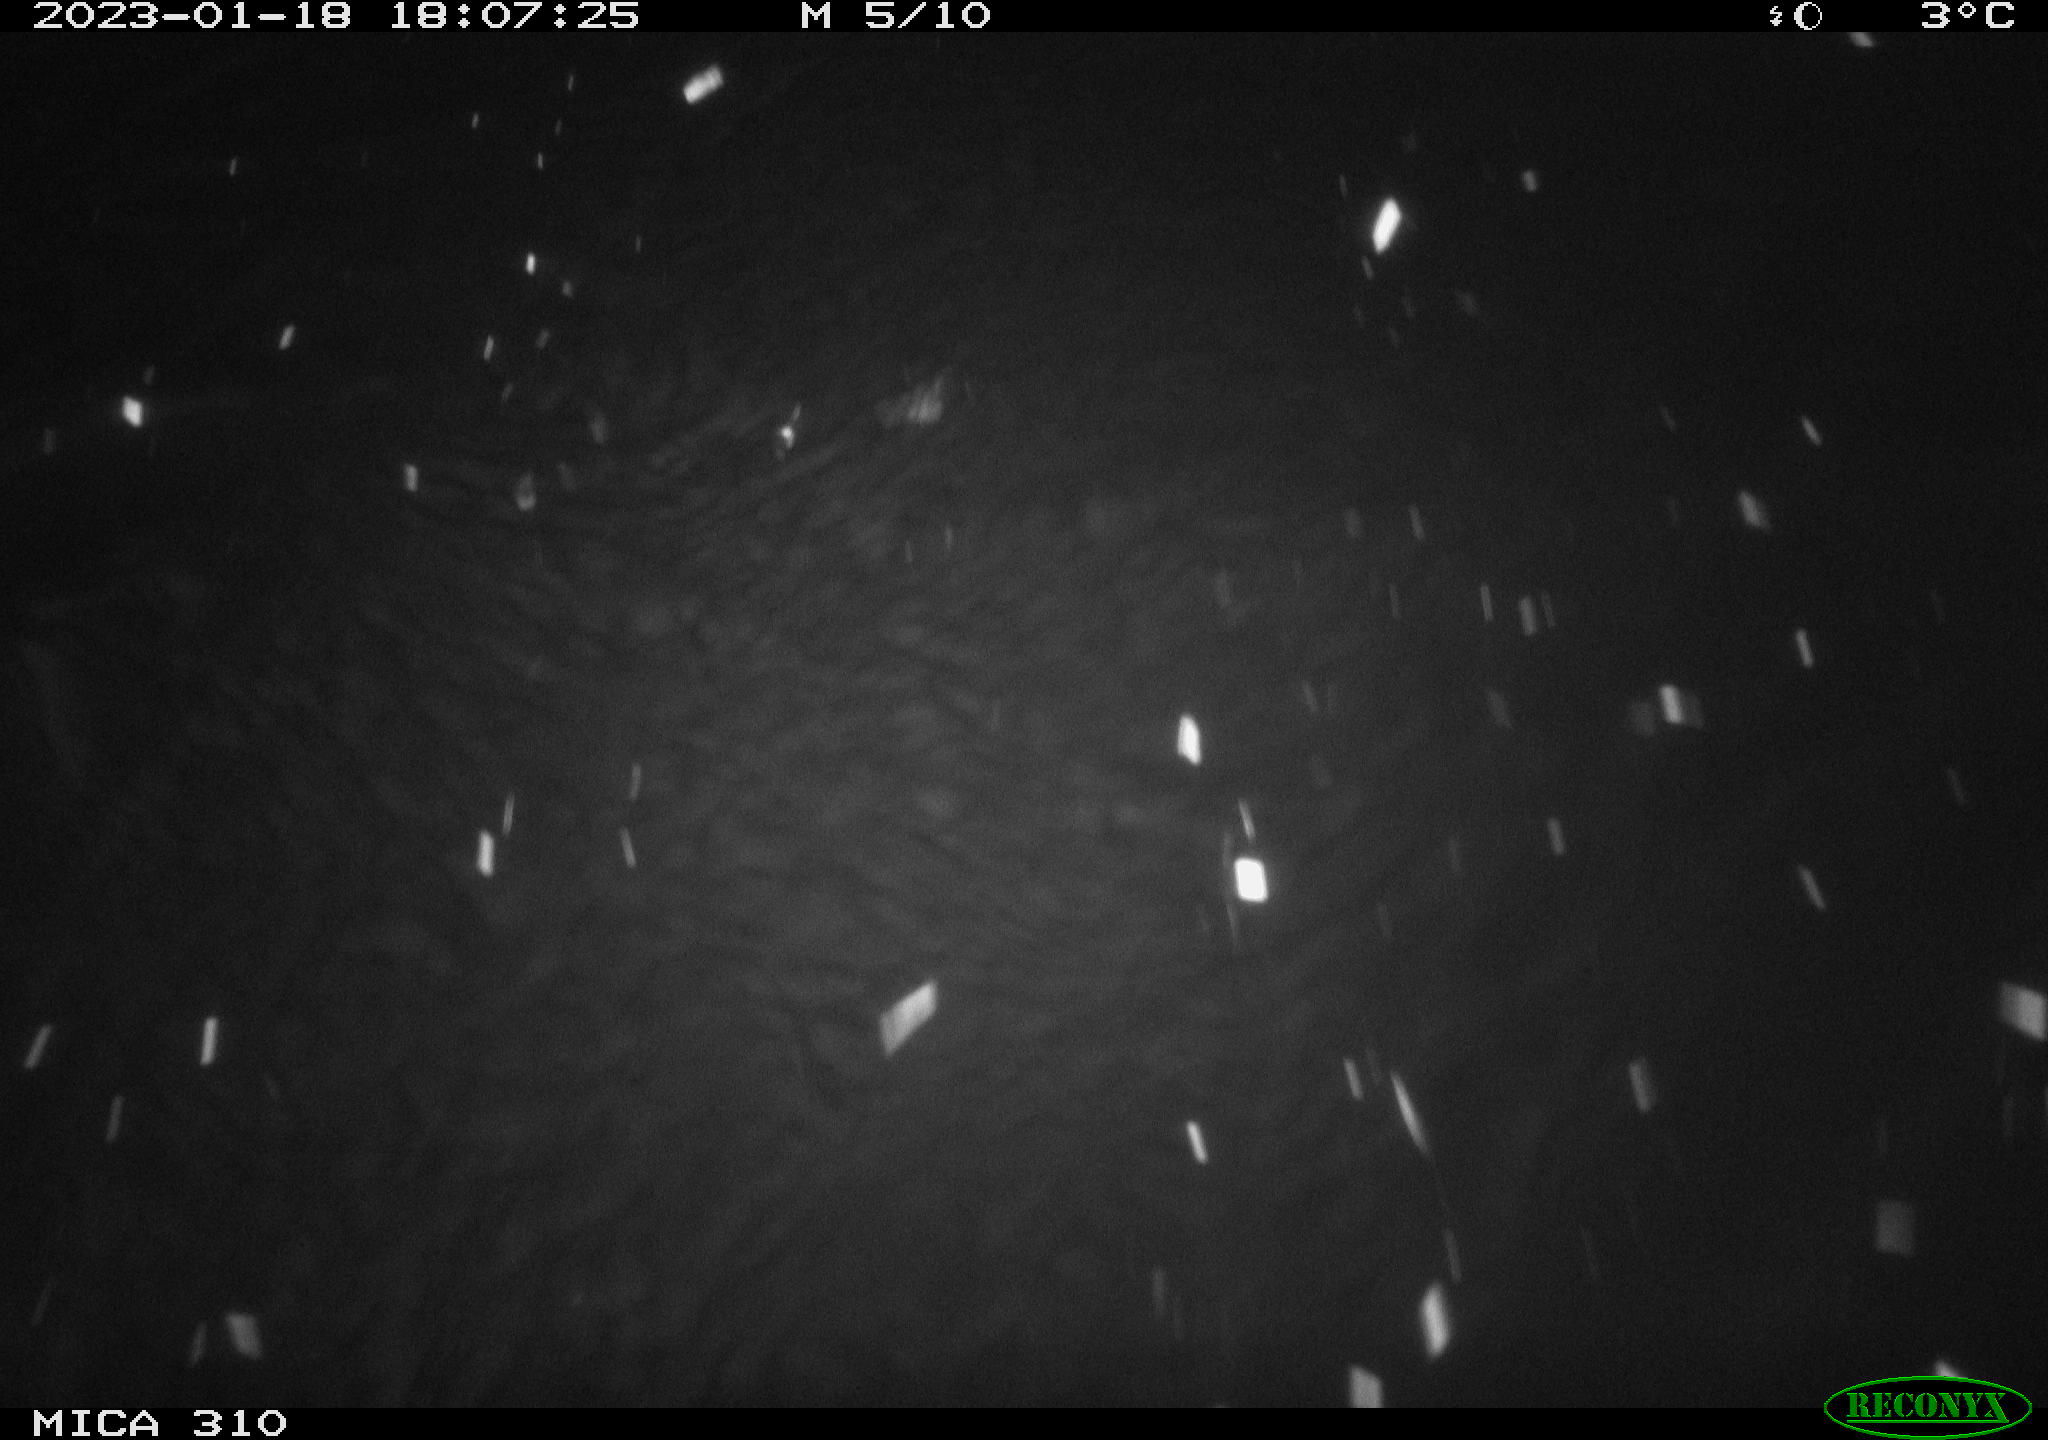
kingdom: Animalia
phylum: Chordata
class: Aves
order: Anseriformes
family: Anatidae
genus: Anas
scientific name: Anas
